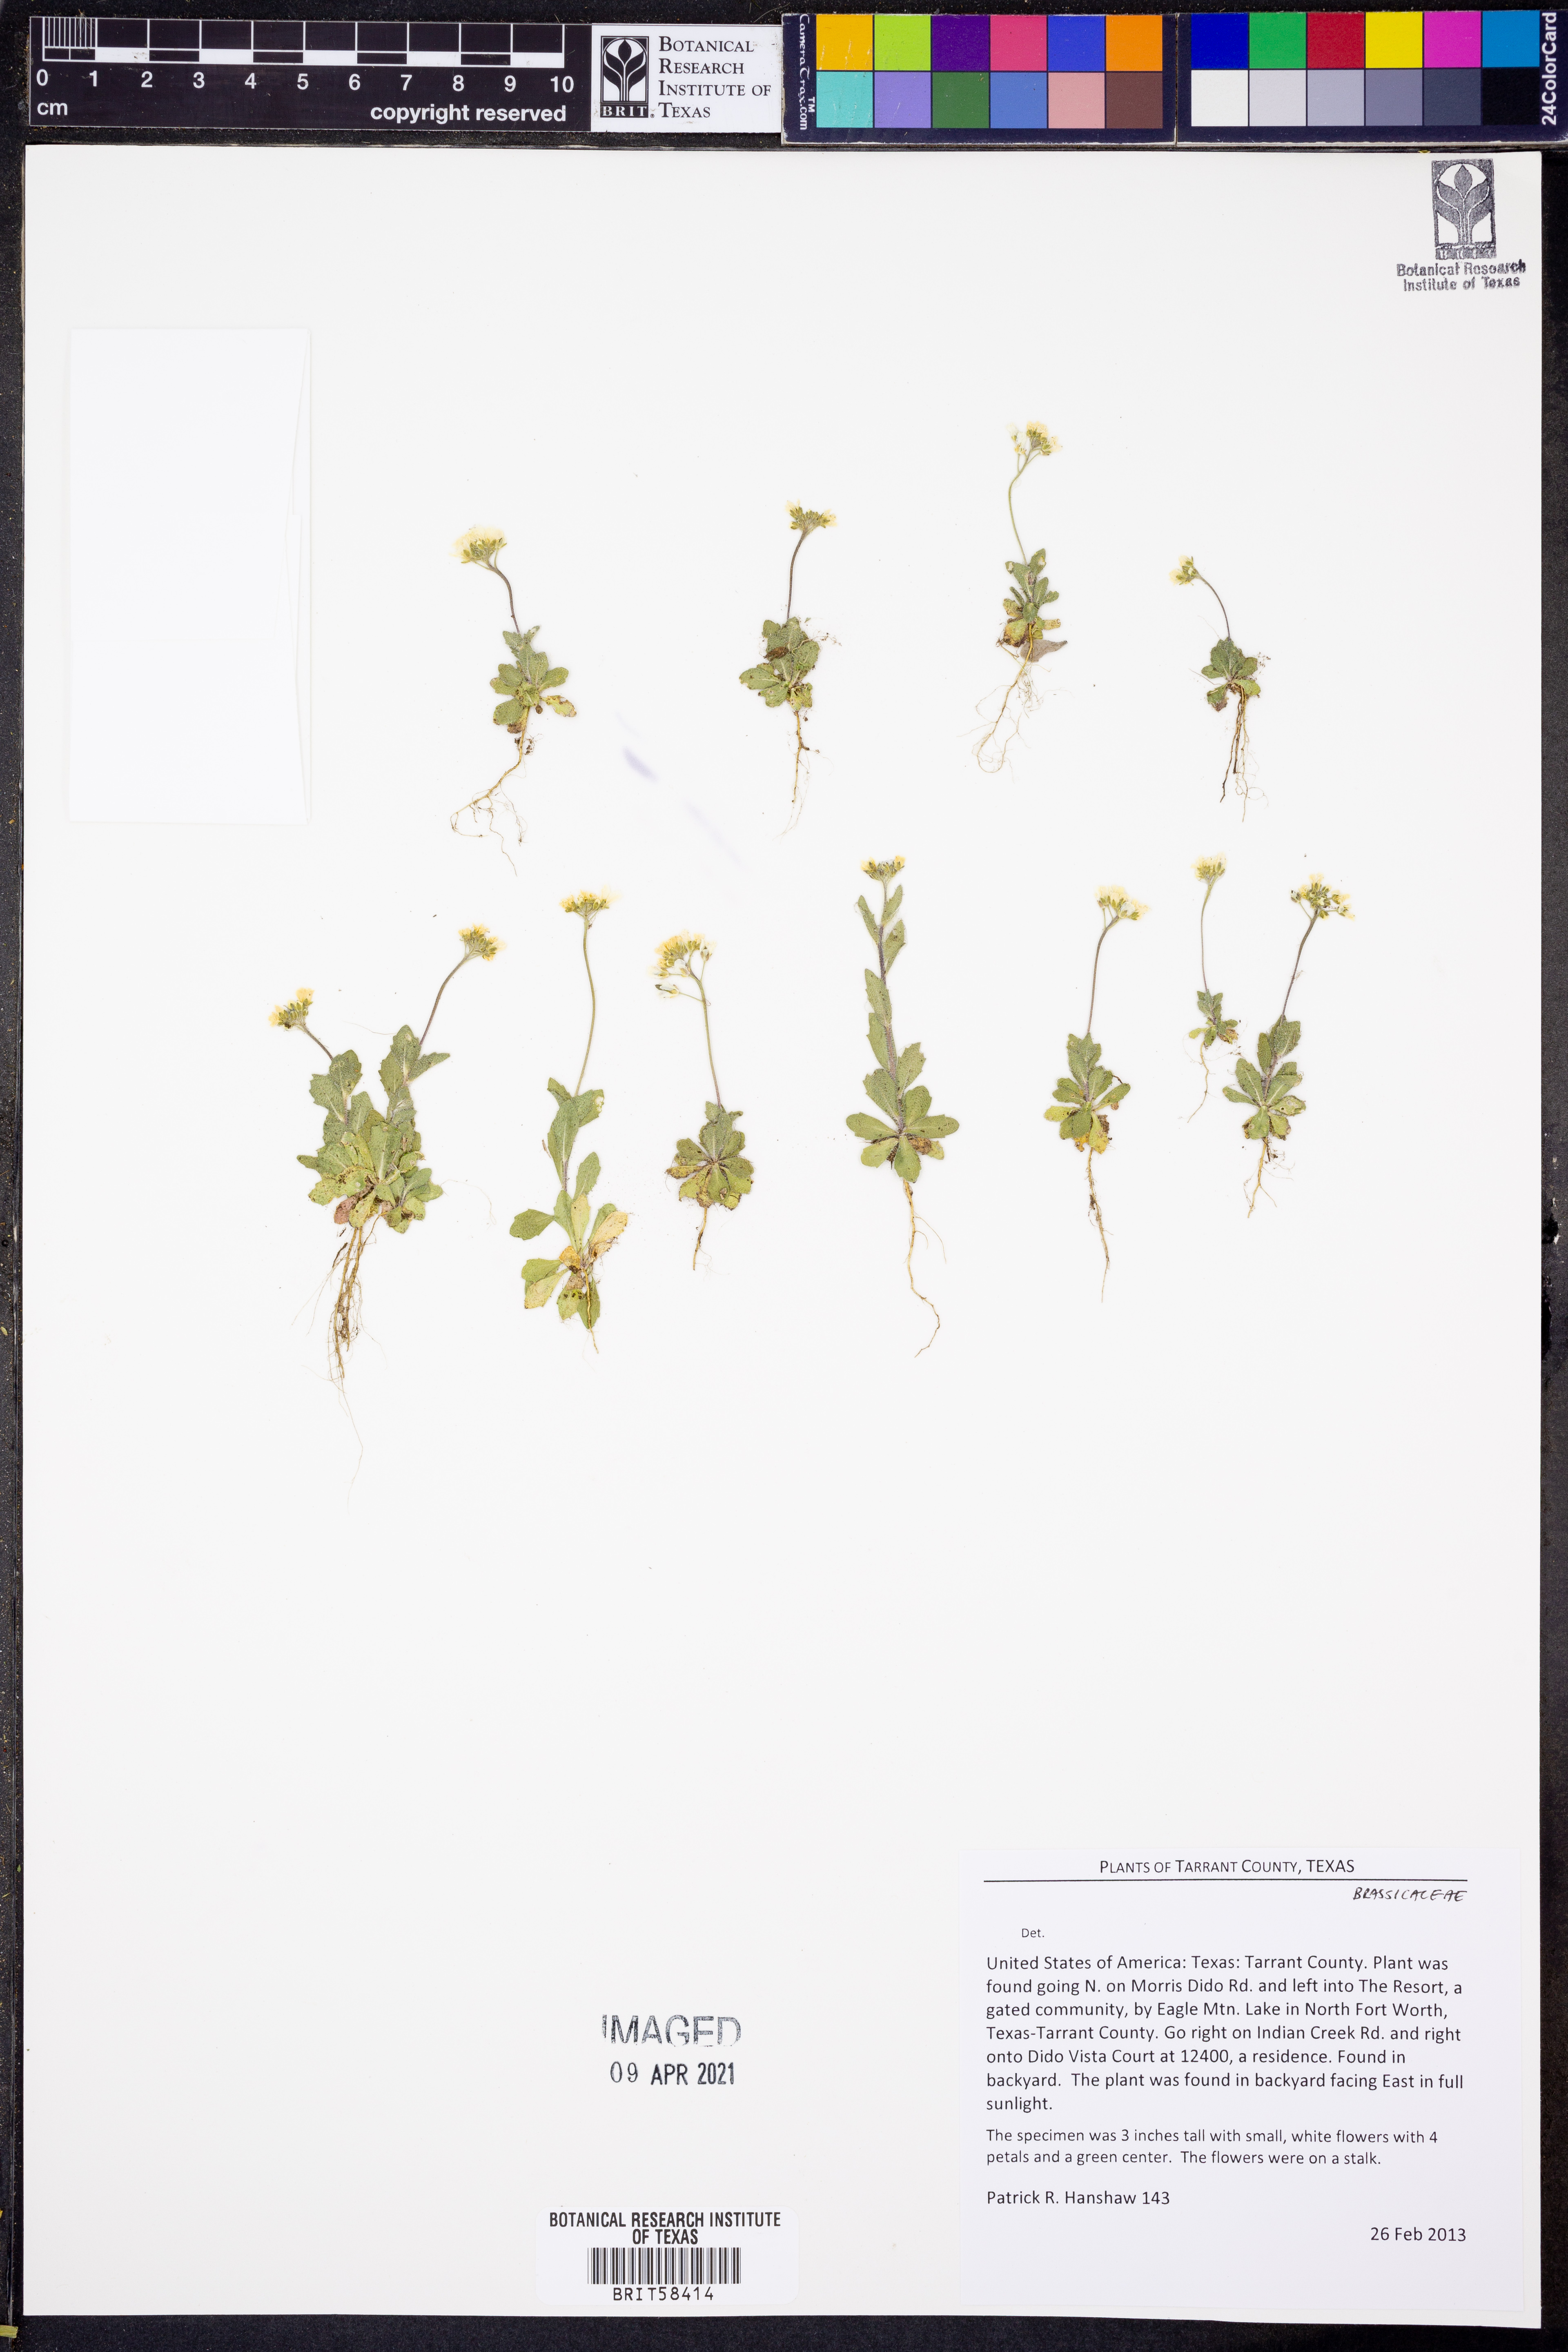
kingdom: Plantae
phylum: Tracheophyta
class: Magnoliopsida
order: Brassicales
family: Brassicaceae
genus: Tomostima
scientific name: Tomostima cuneifolia
